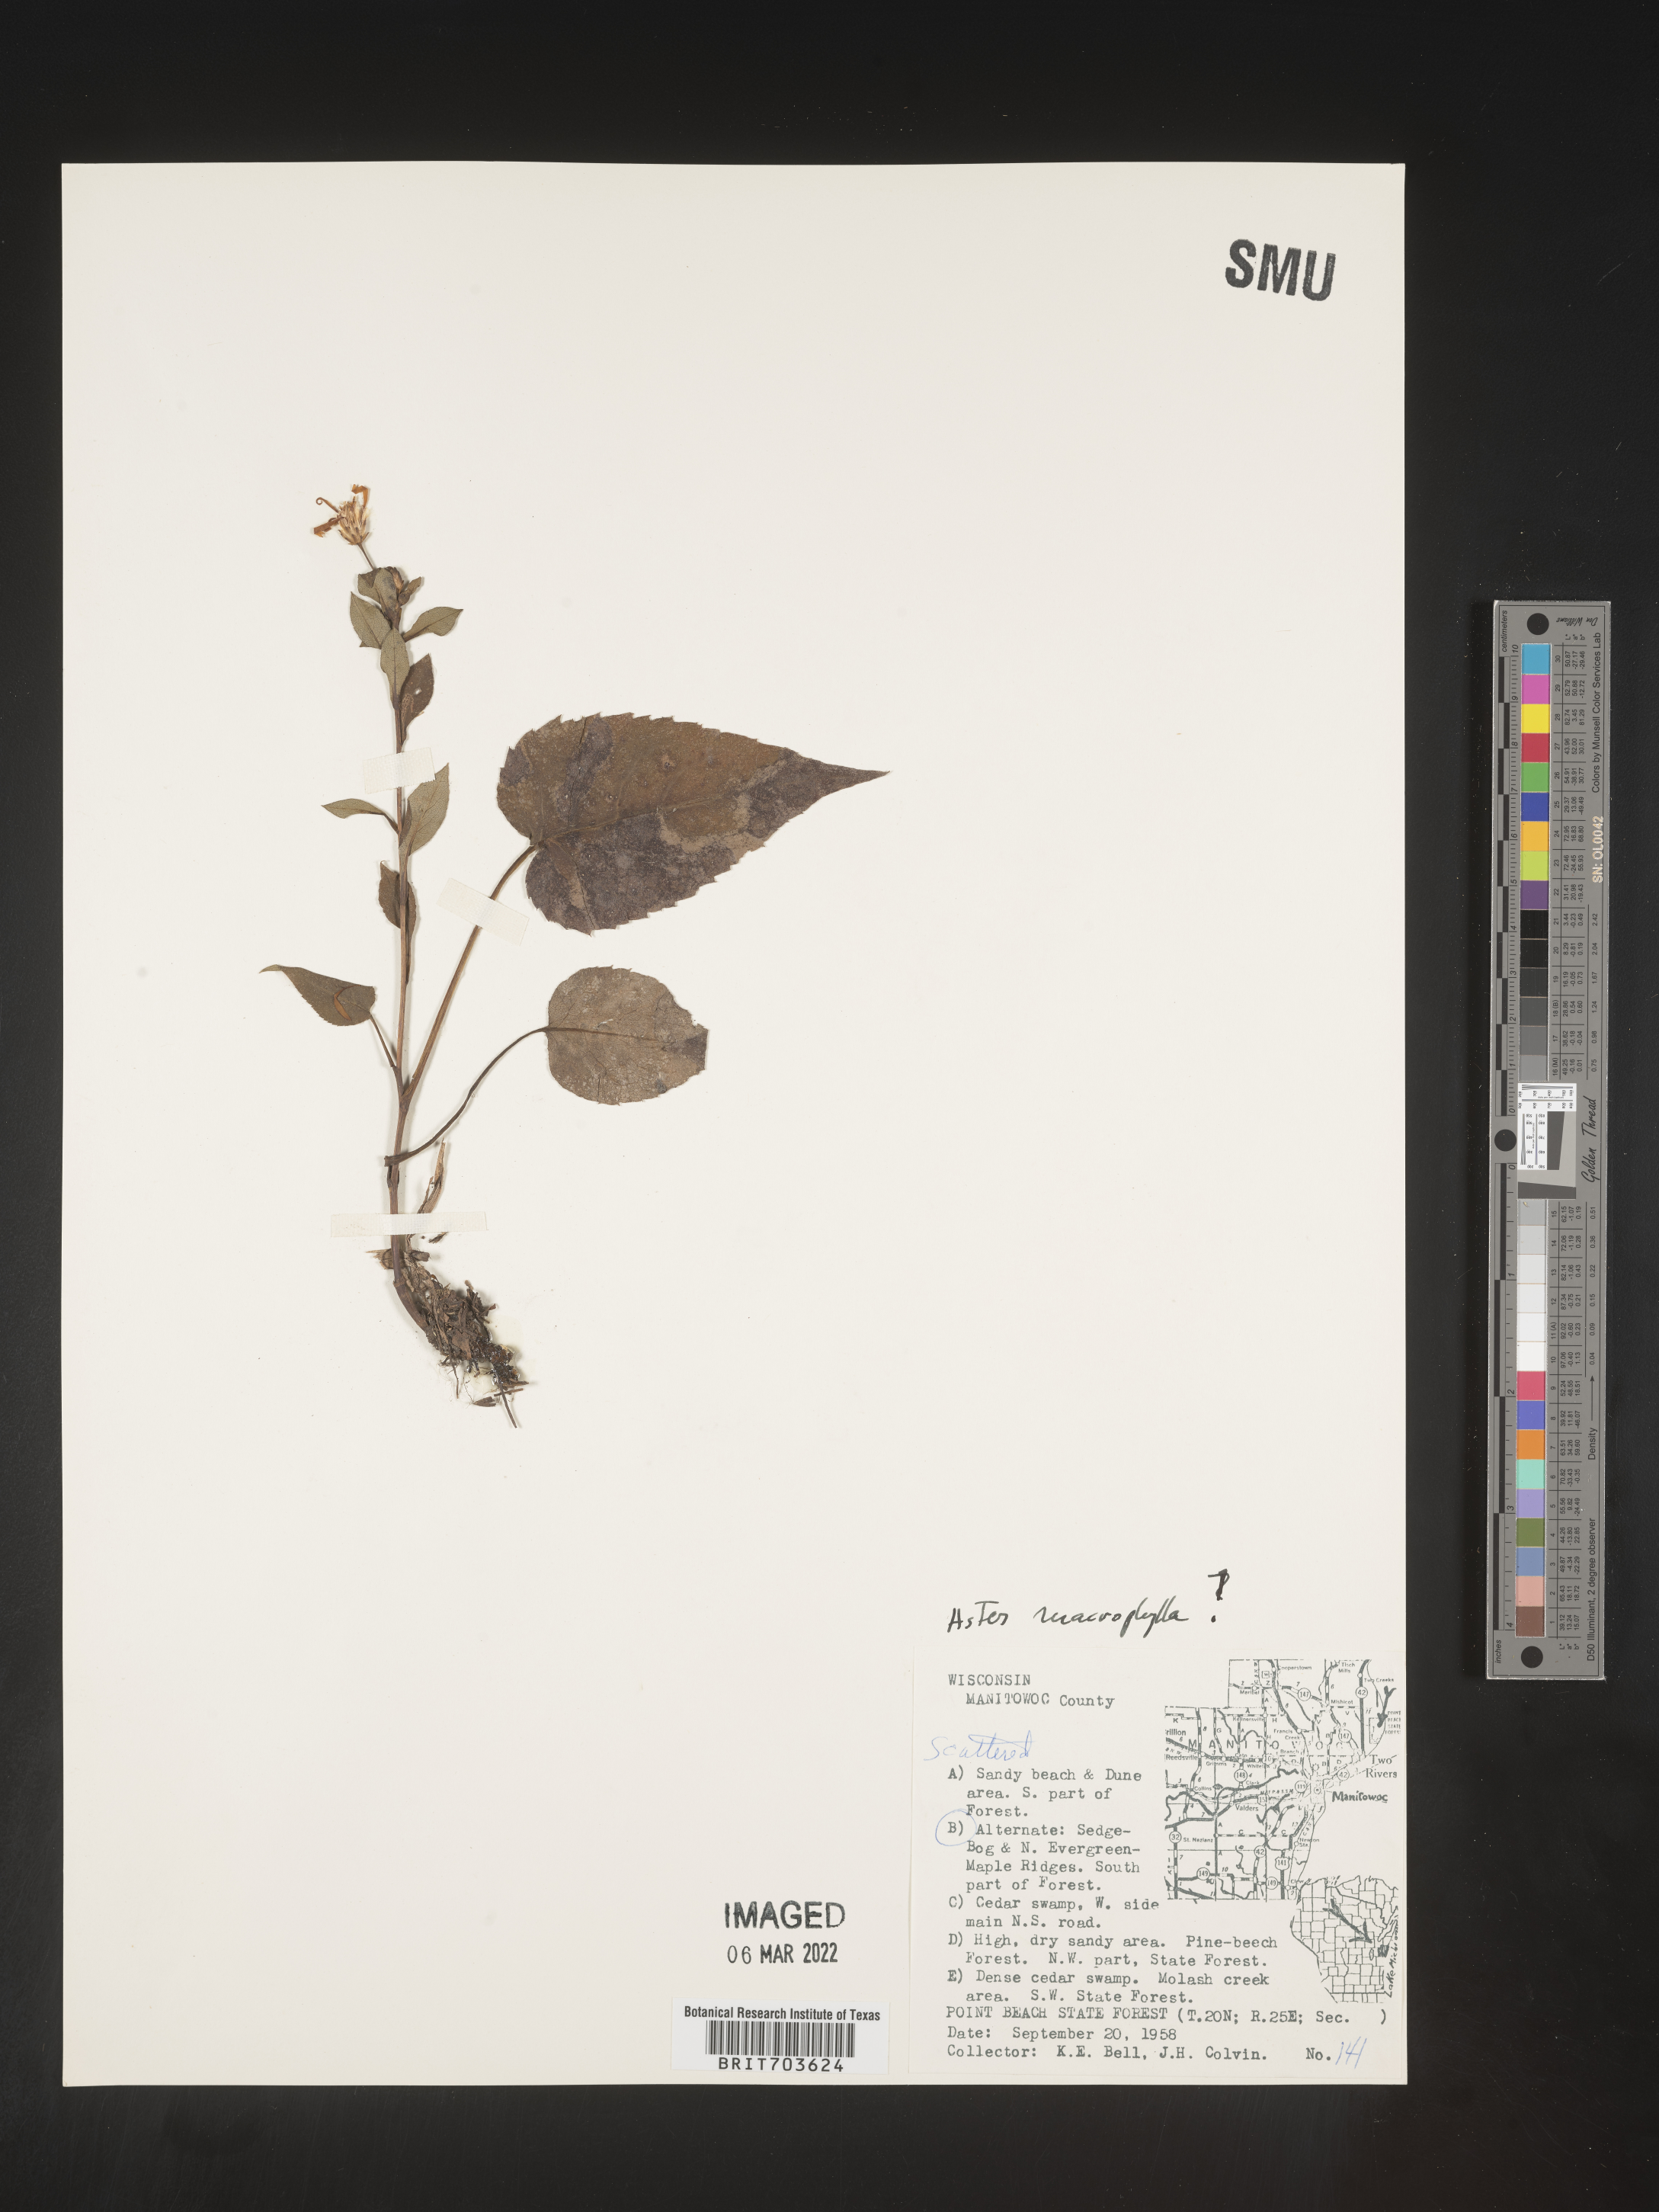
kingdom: Plantae
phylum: Tracheophyta
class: Magnoliopsida
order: Asterales
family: Asteraceae
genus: Eurybia
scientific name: Eurybia macrophylla
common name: Big-leaved aster
